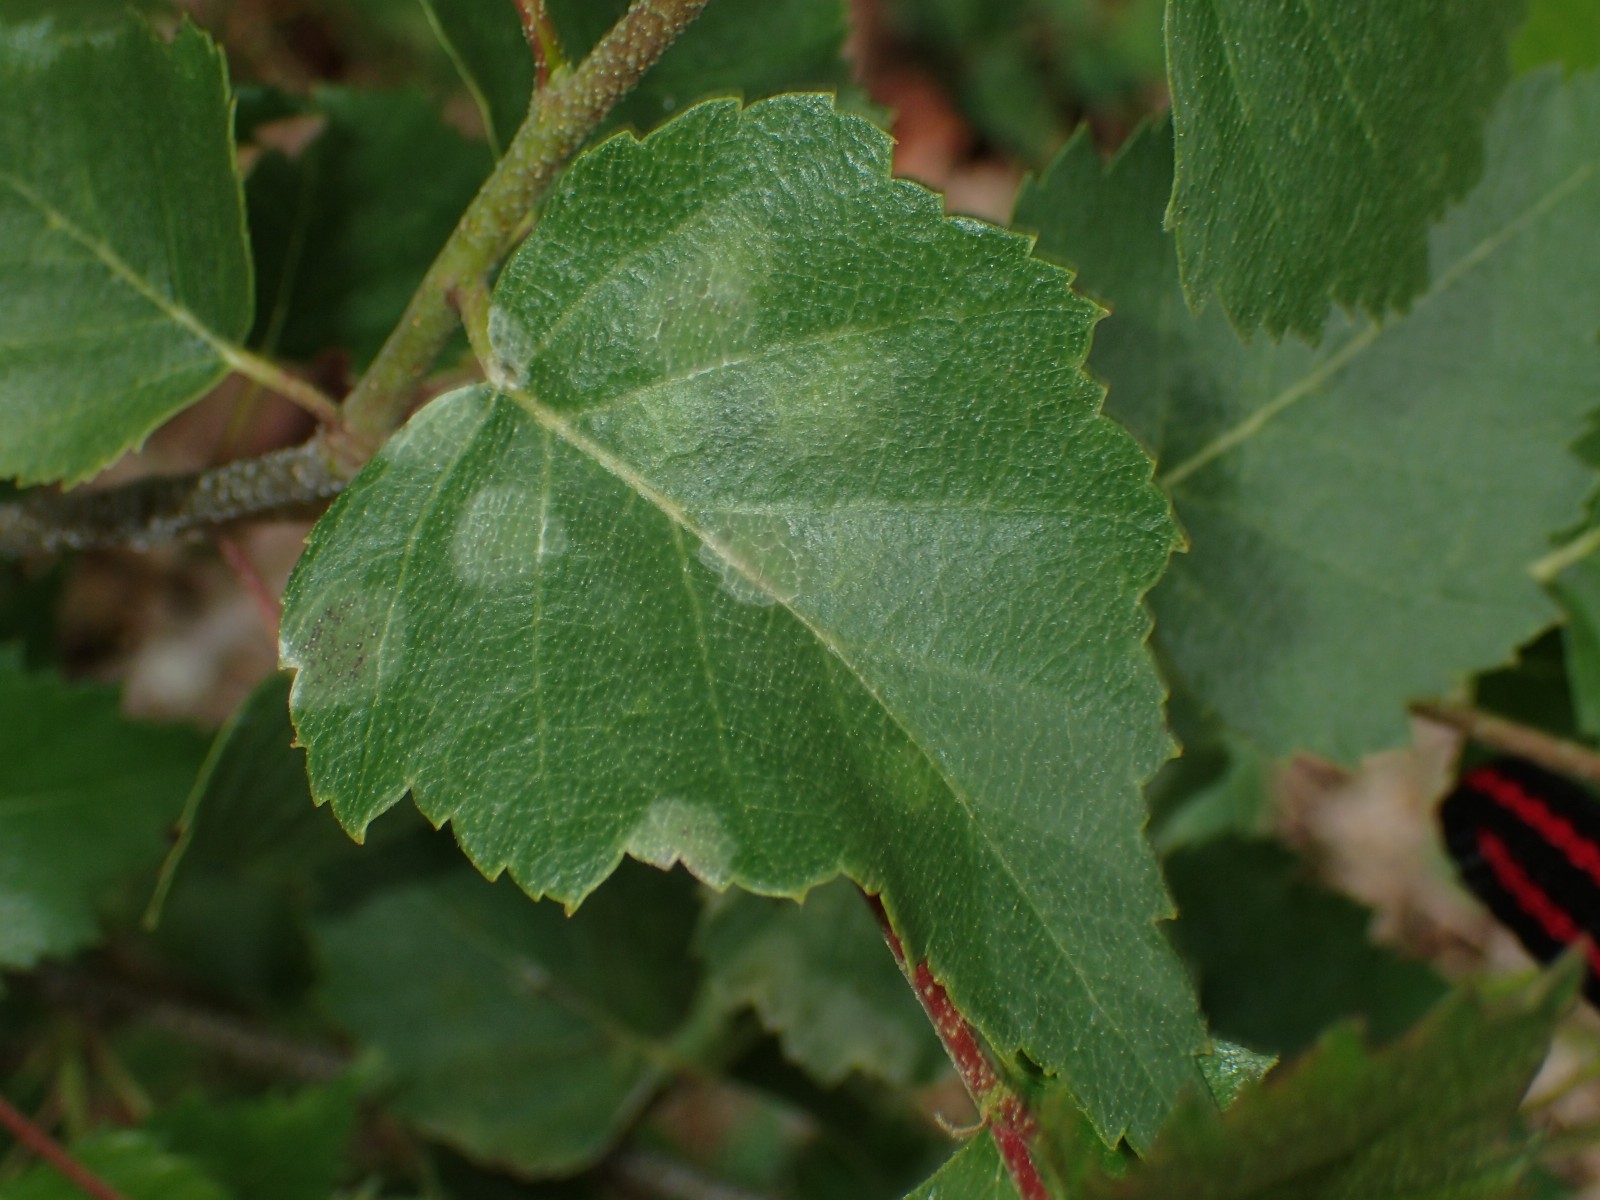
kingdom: Fungi
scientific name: Fungi
